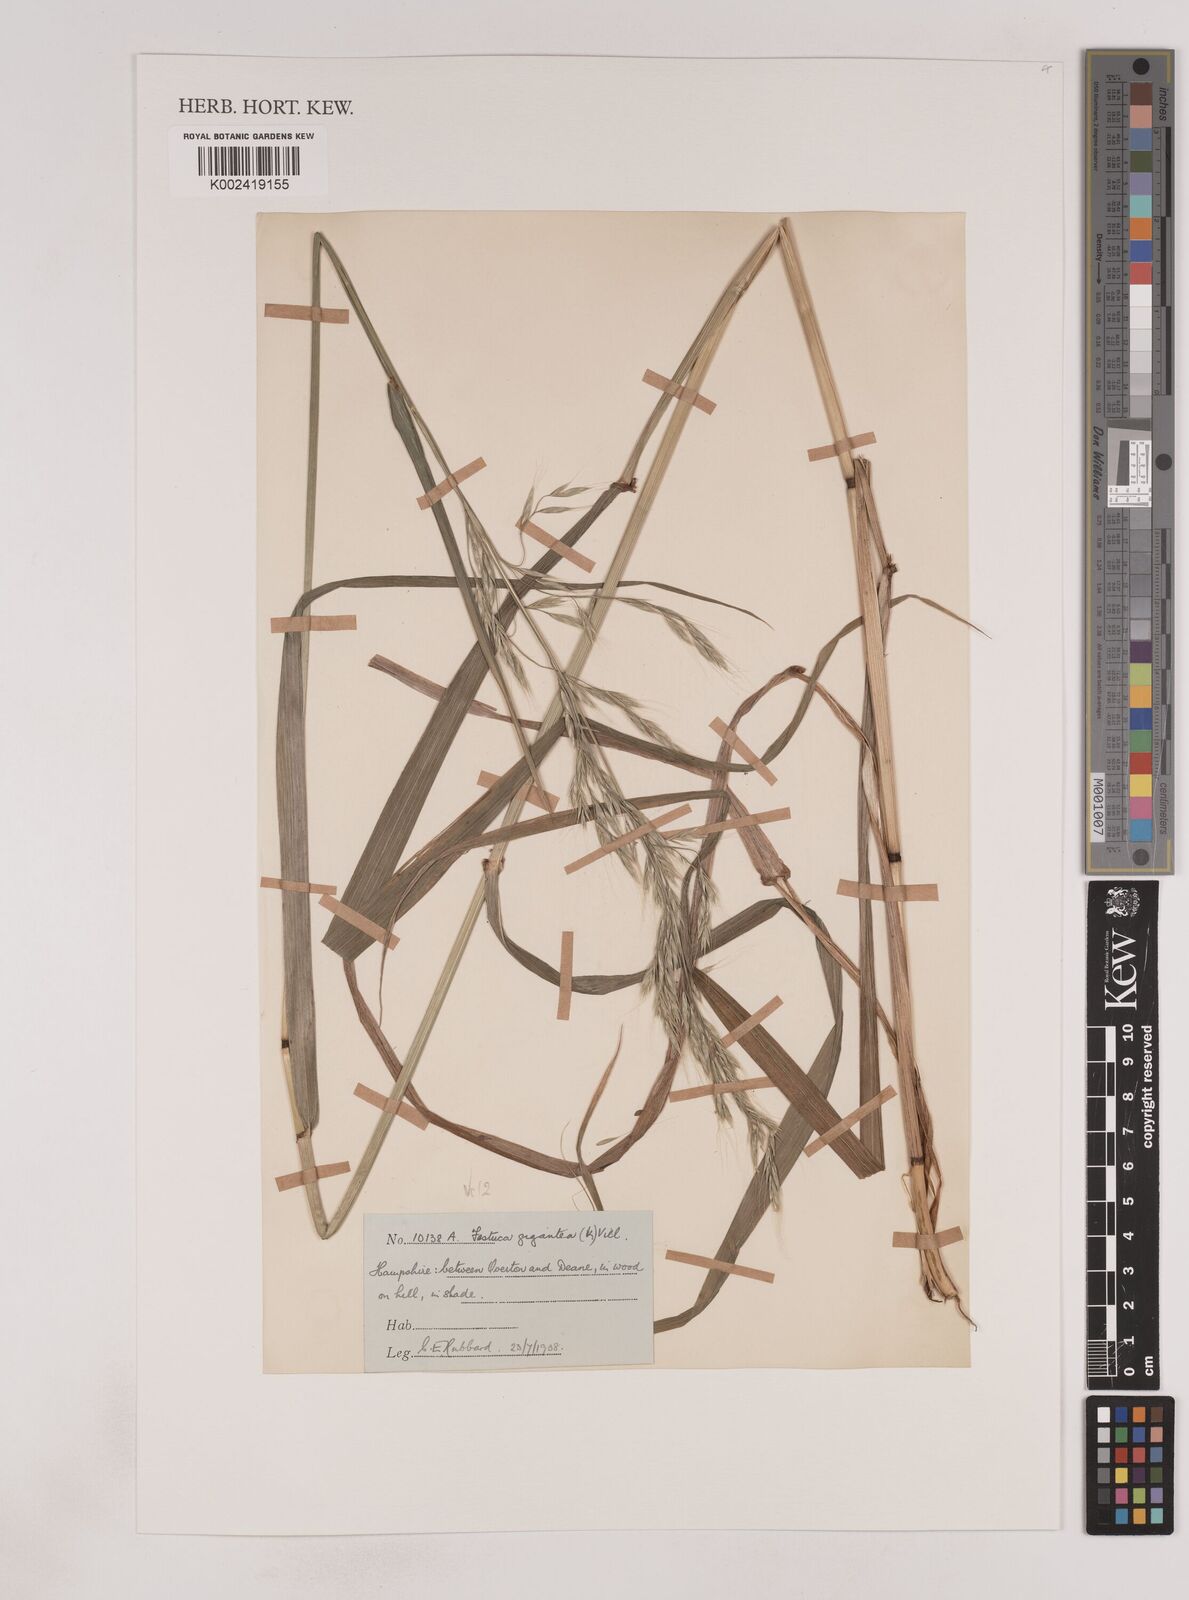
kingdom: Plantae
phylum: Tracheophyta
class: Liliopsida
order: Poales
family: Poaceae
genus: Lolium
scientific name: Lolium giganteum
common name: Giant fescue
